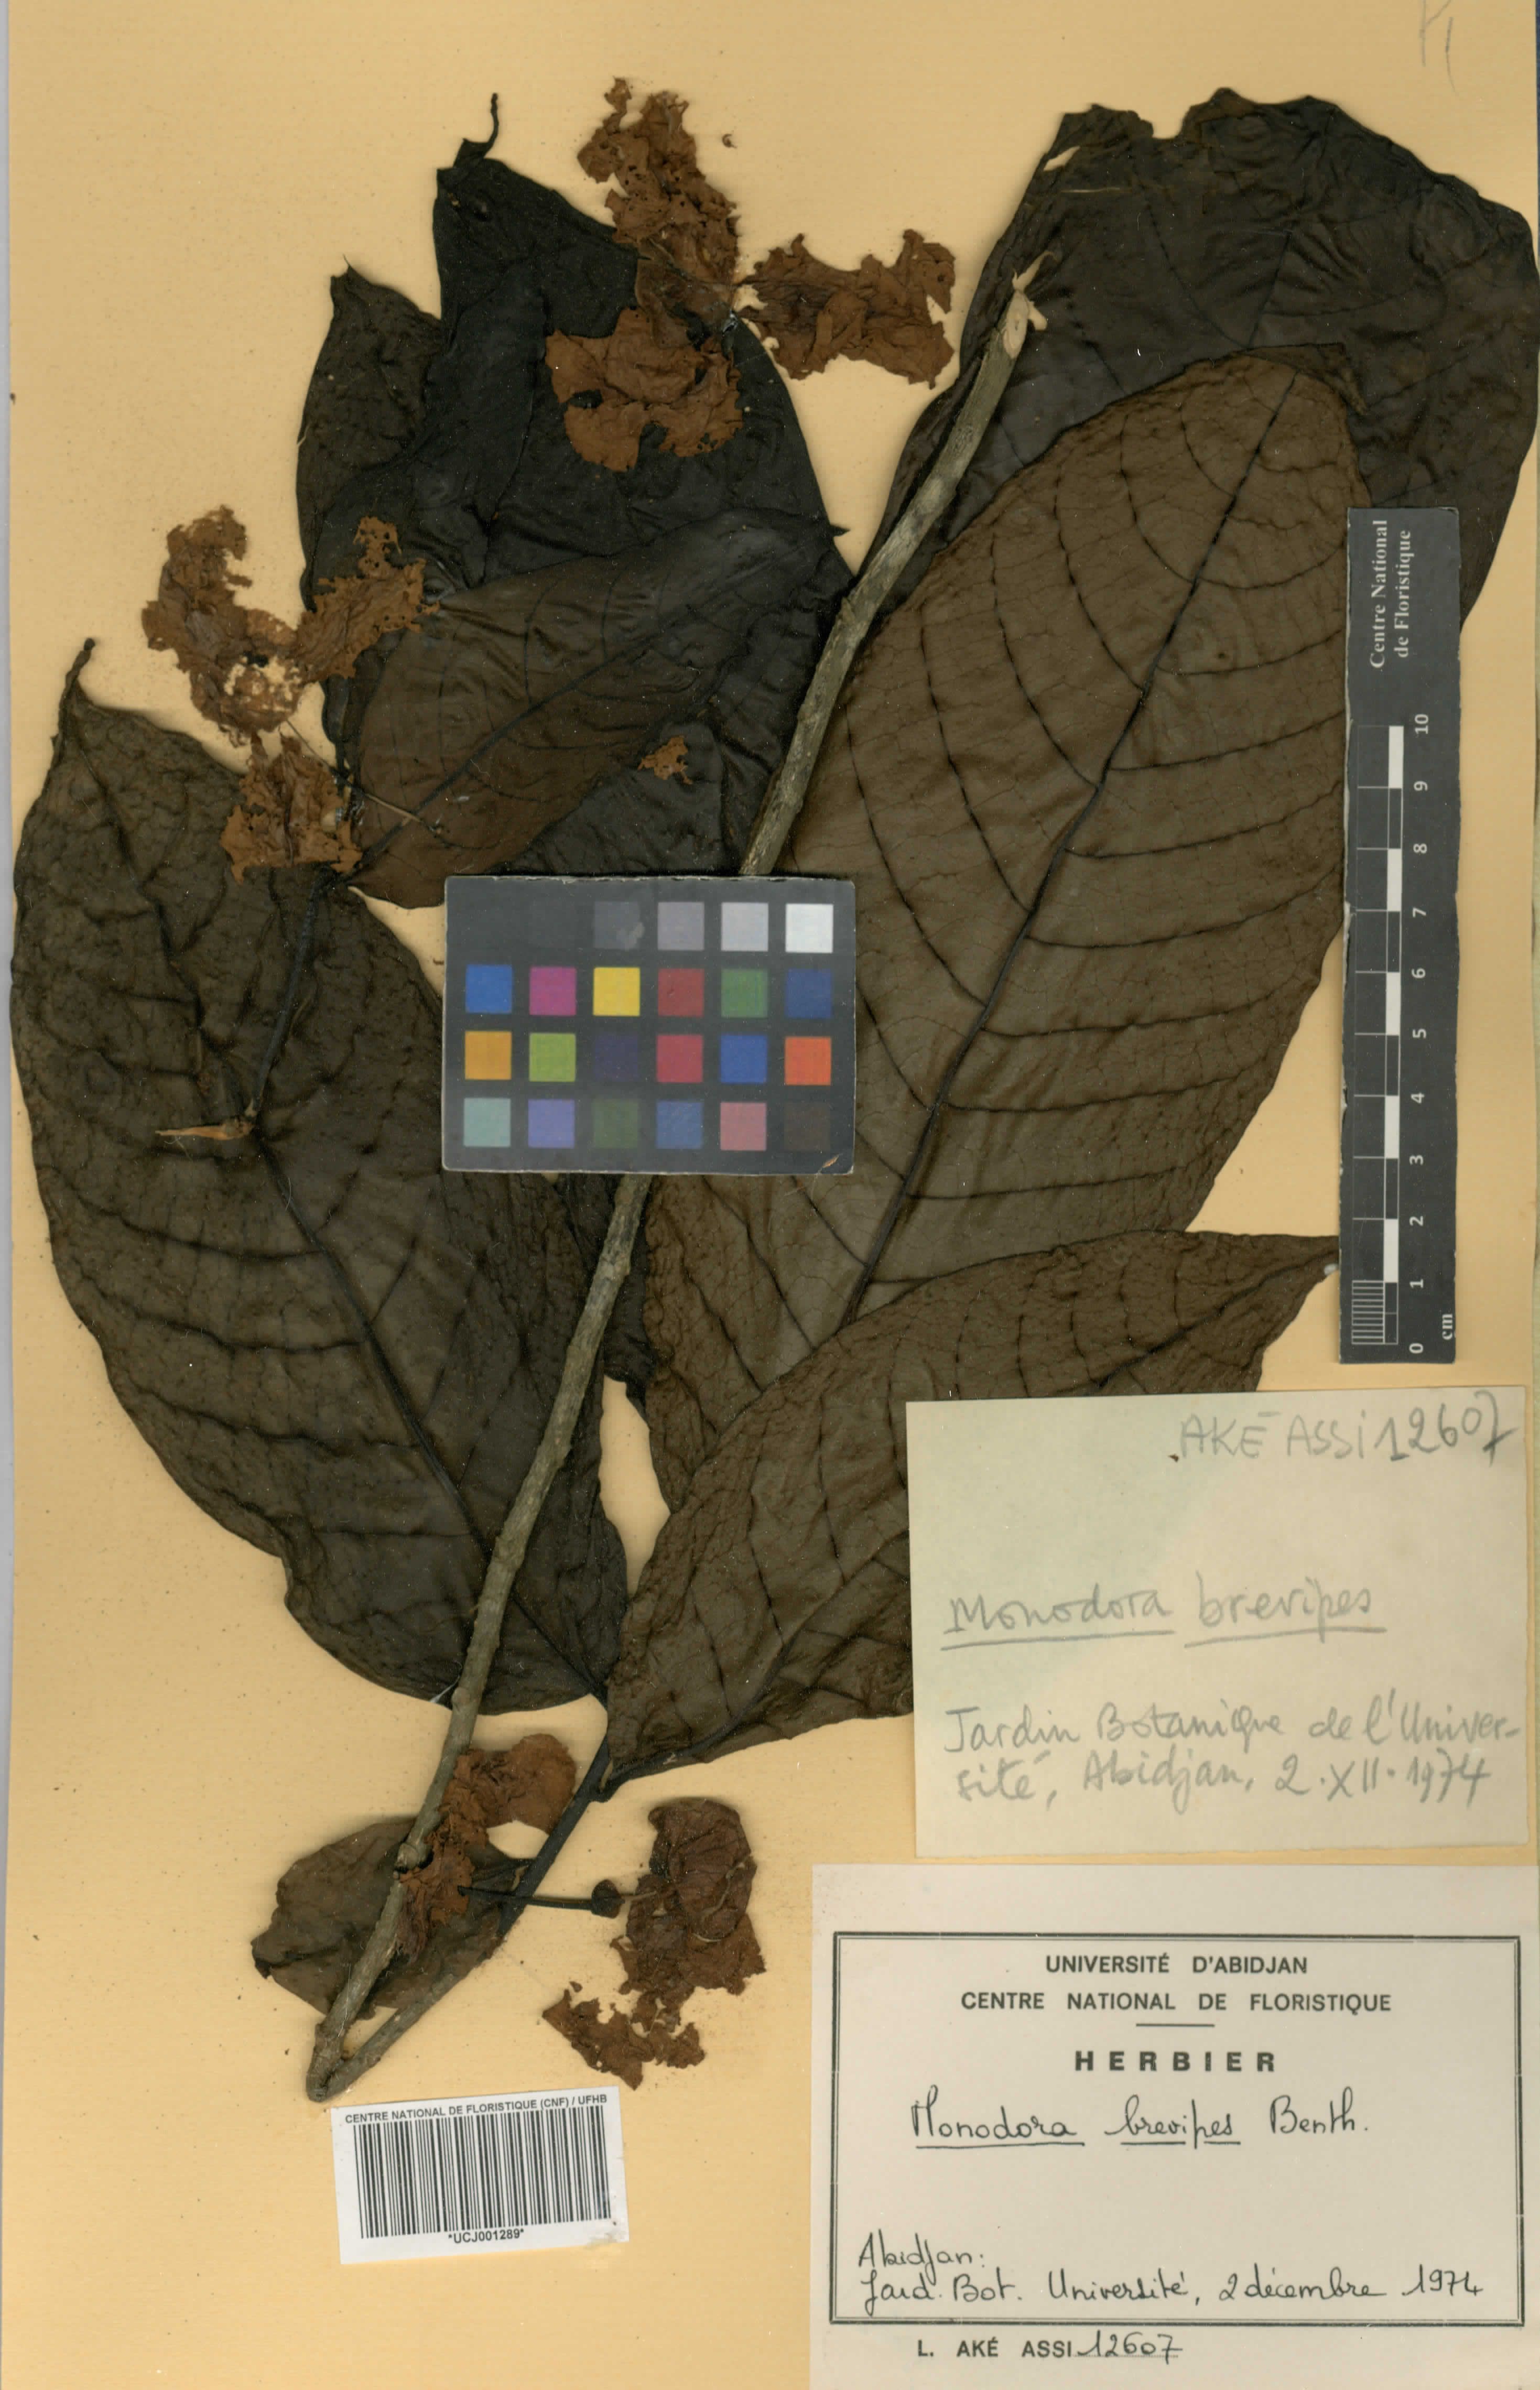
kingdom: Plantae
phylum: Tracheophyta
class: Magnoliopsida
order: Magnoliales
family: Annonaceae
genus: Monodora
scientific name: Monodora undulata
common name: Yellow-flower-nutmeg
